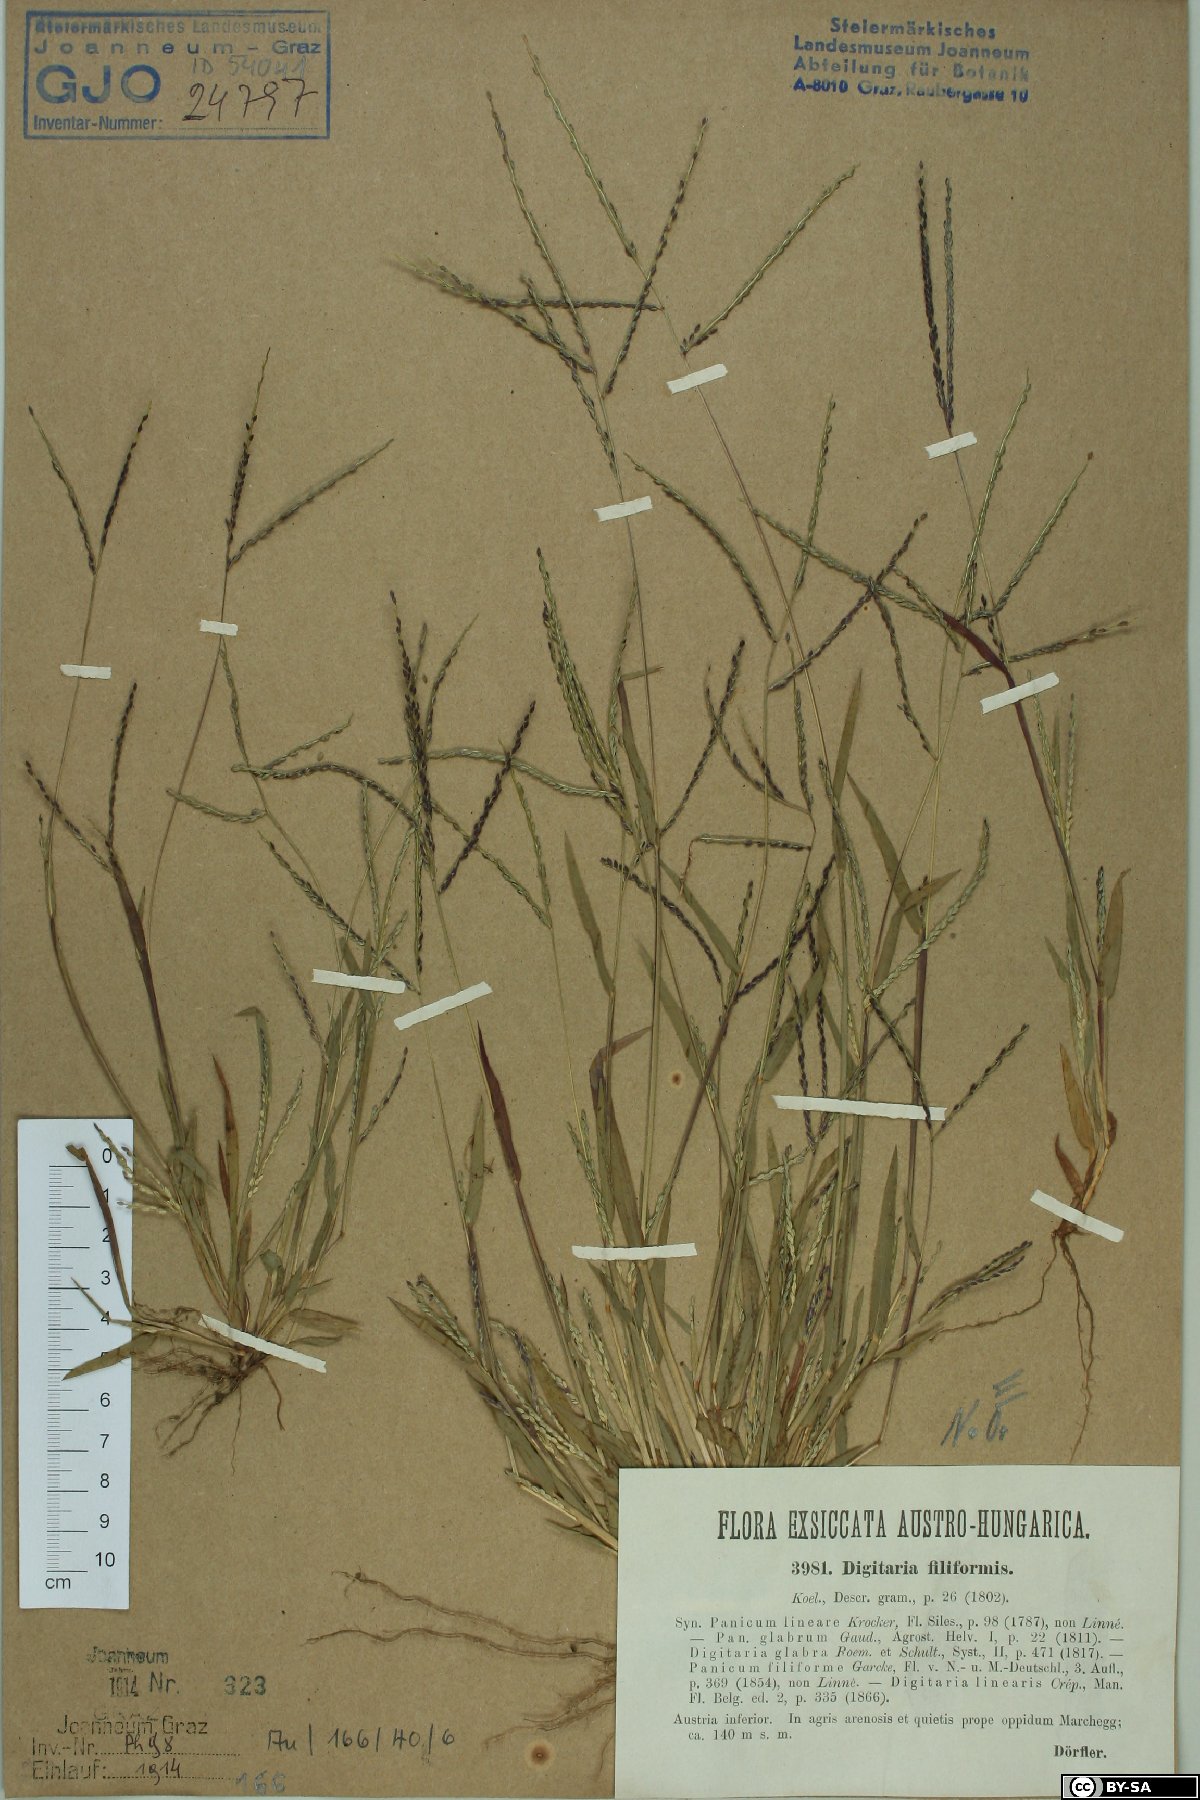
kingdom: Plantae
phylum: Tracheophyta
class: Liliopsida
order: Poales
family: Poaceae
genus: Digitaria
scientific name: Digitaria filiformis
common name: Slender crabgrass
